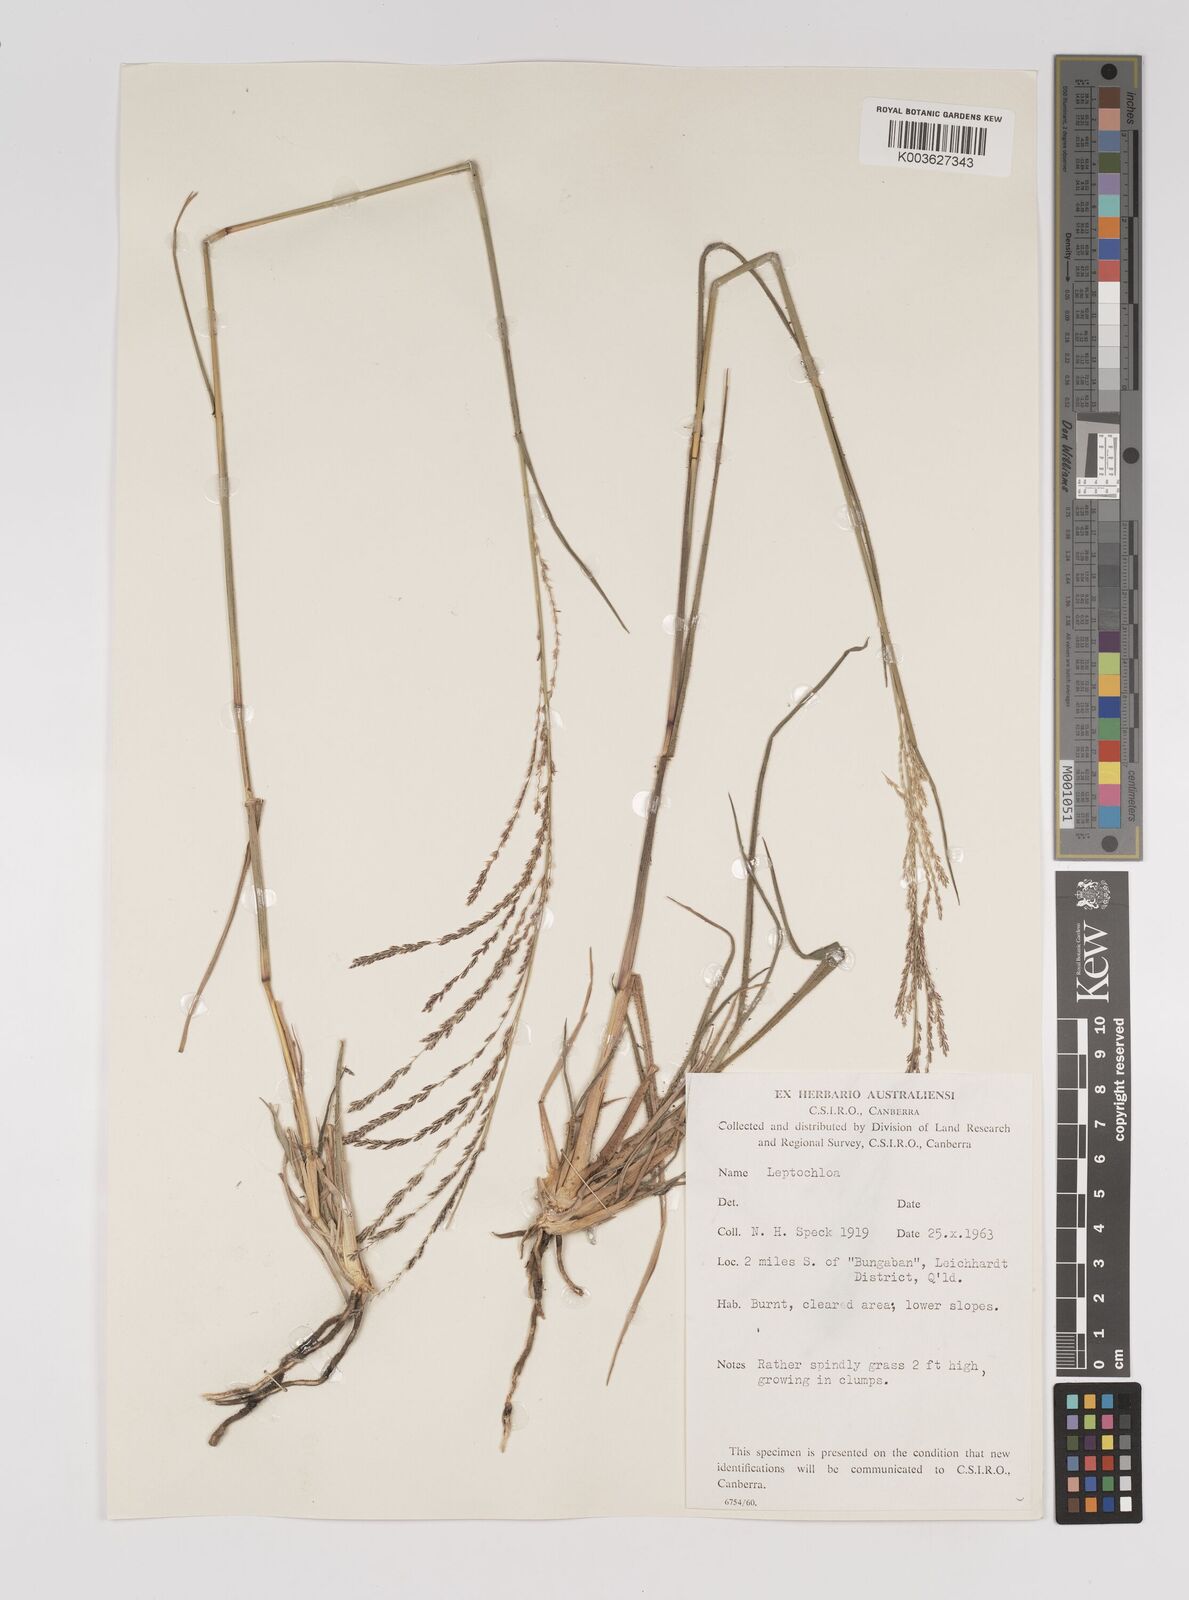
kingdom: Plantae
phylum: Tracheophyta
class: Liliopsida
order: Poales
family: Poaceae
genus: Leptochloa
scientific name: Leptochloa decipiens
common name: Australian sprangletop
